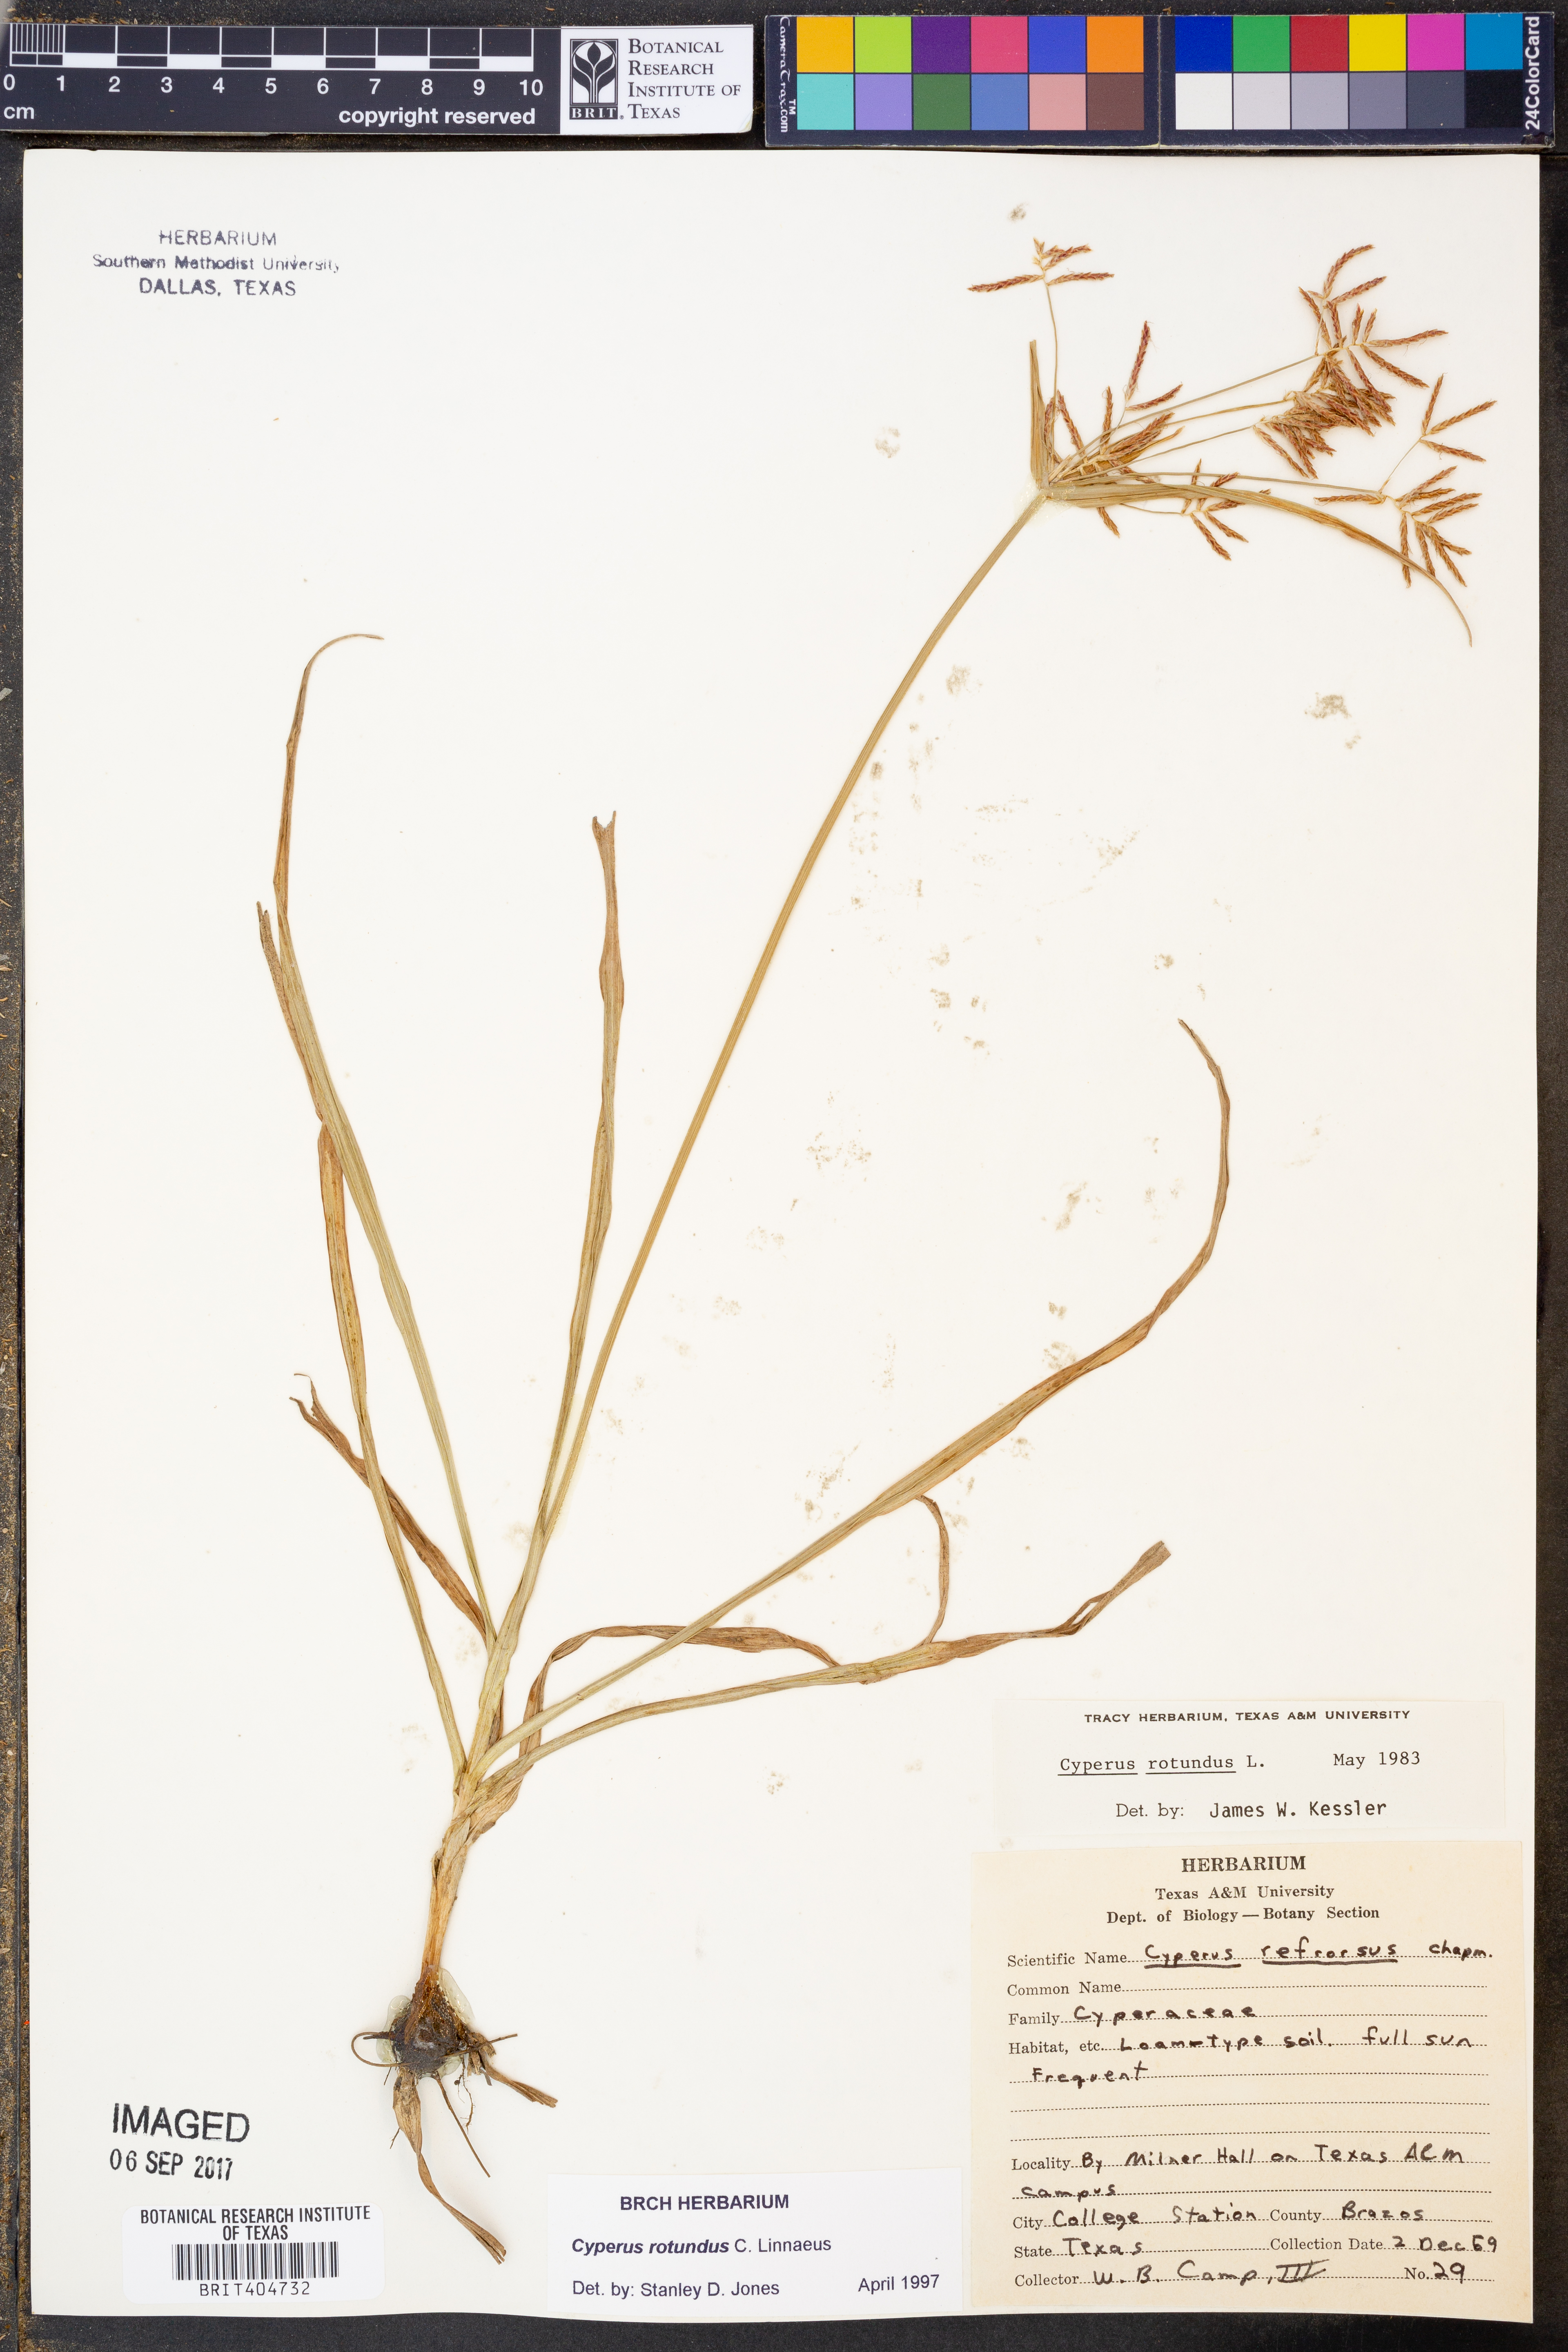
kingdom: Plantae
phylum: Tracheophyta
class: Liliopsida
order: Poales
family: Cyperaceae
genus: Cyperus
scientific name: Cyperus rotundus
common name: Nutgrass
